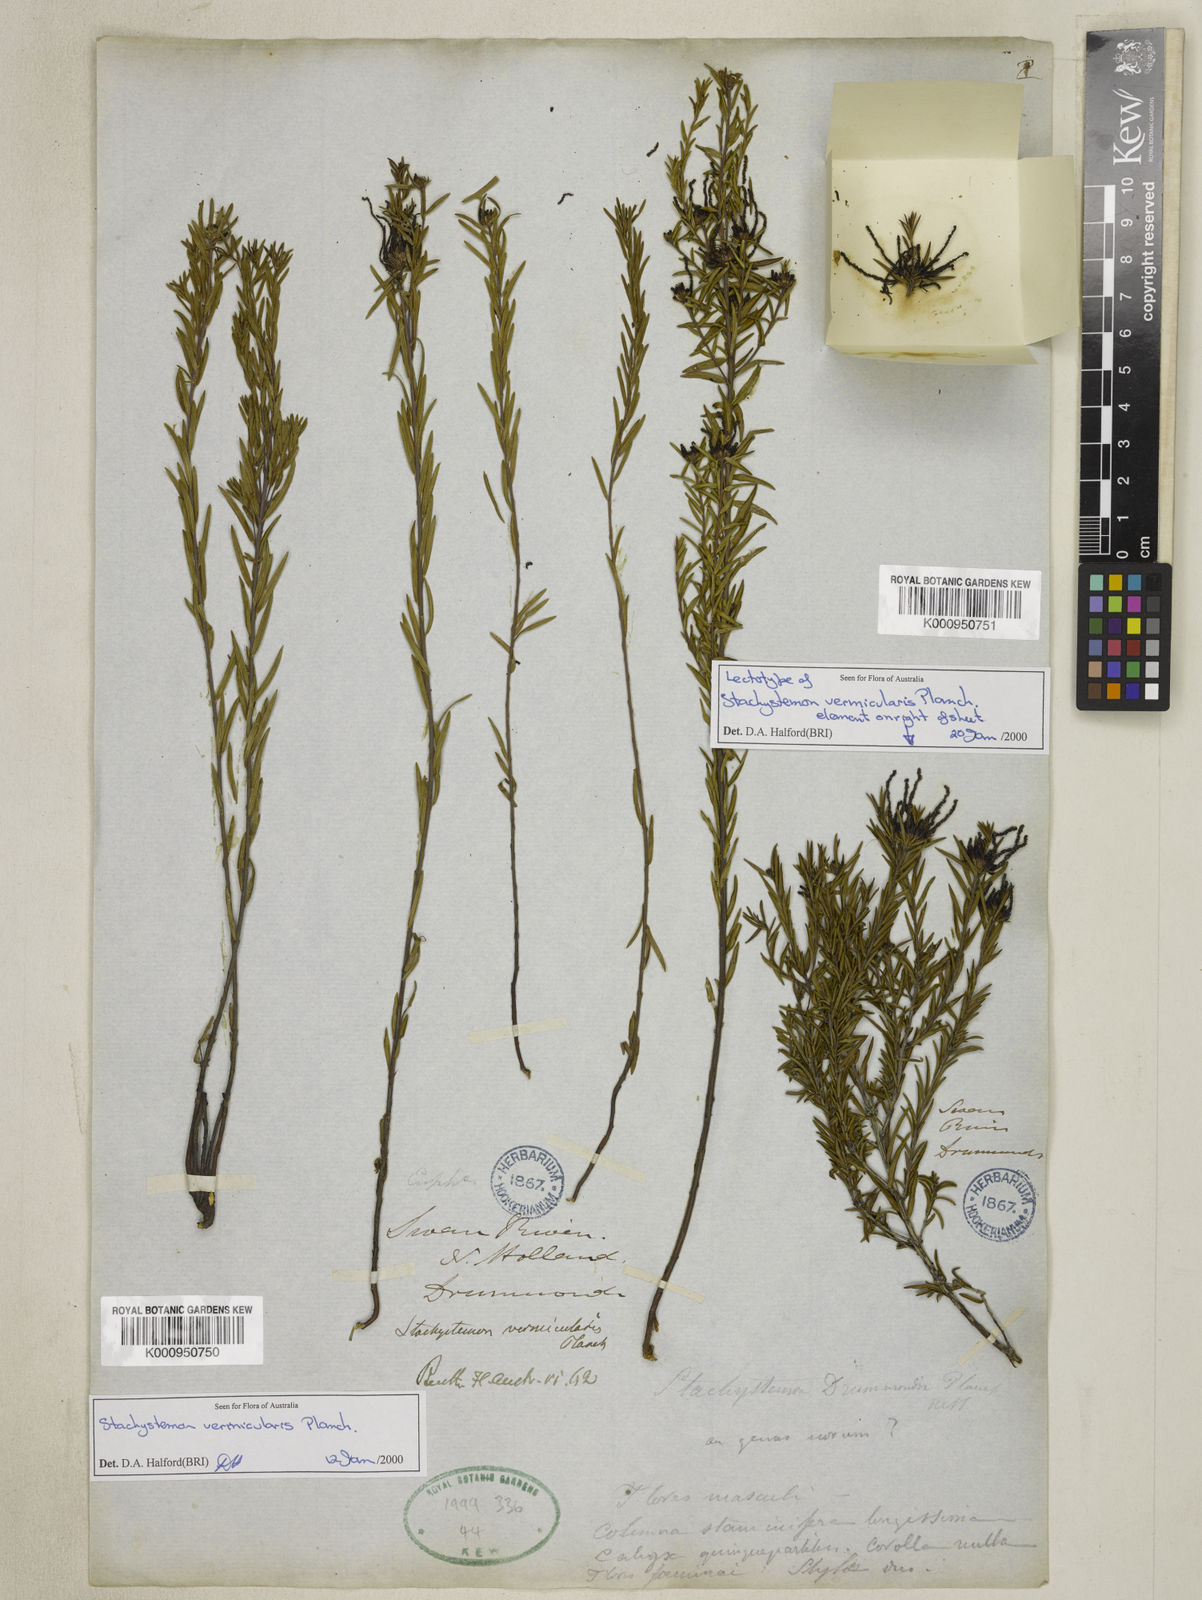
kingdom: Plantae
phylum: Tracheophyta
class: Magnoliopsida
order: Malpighiales
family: Picrodendraceae
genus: Stachystemon
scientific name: Stachystemon vermicularis
